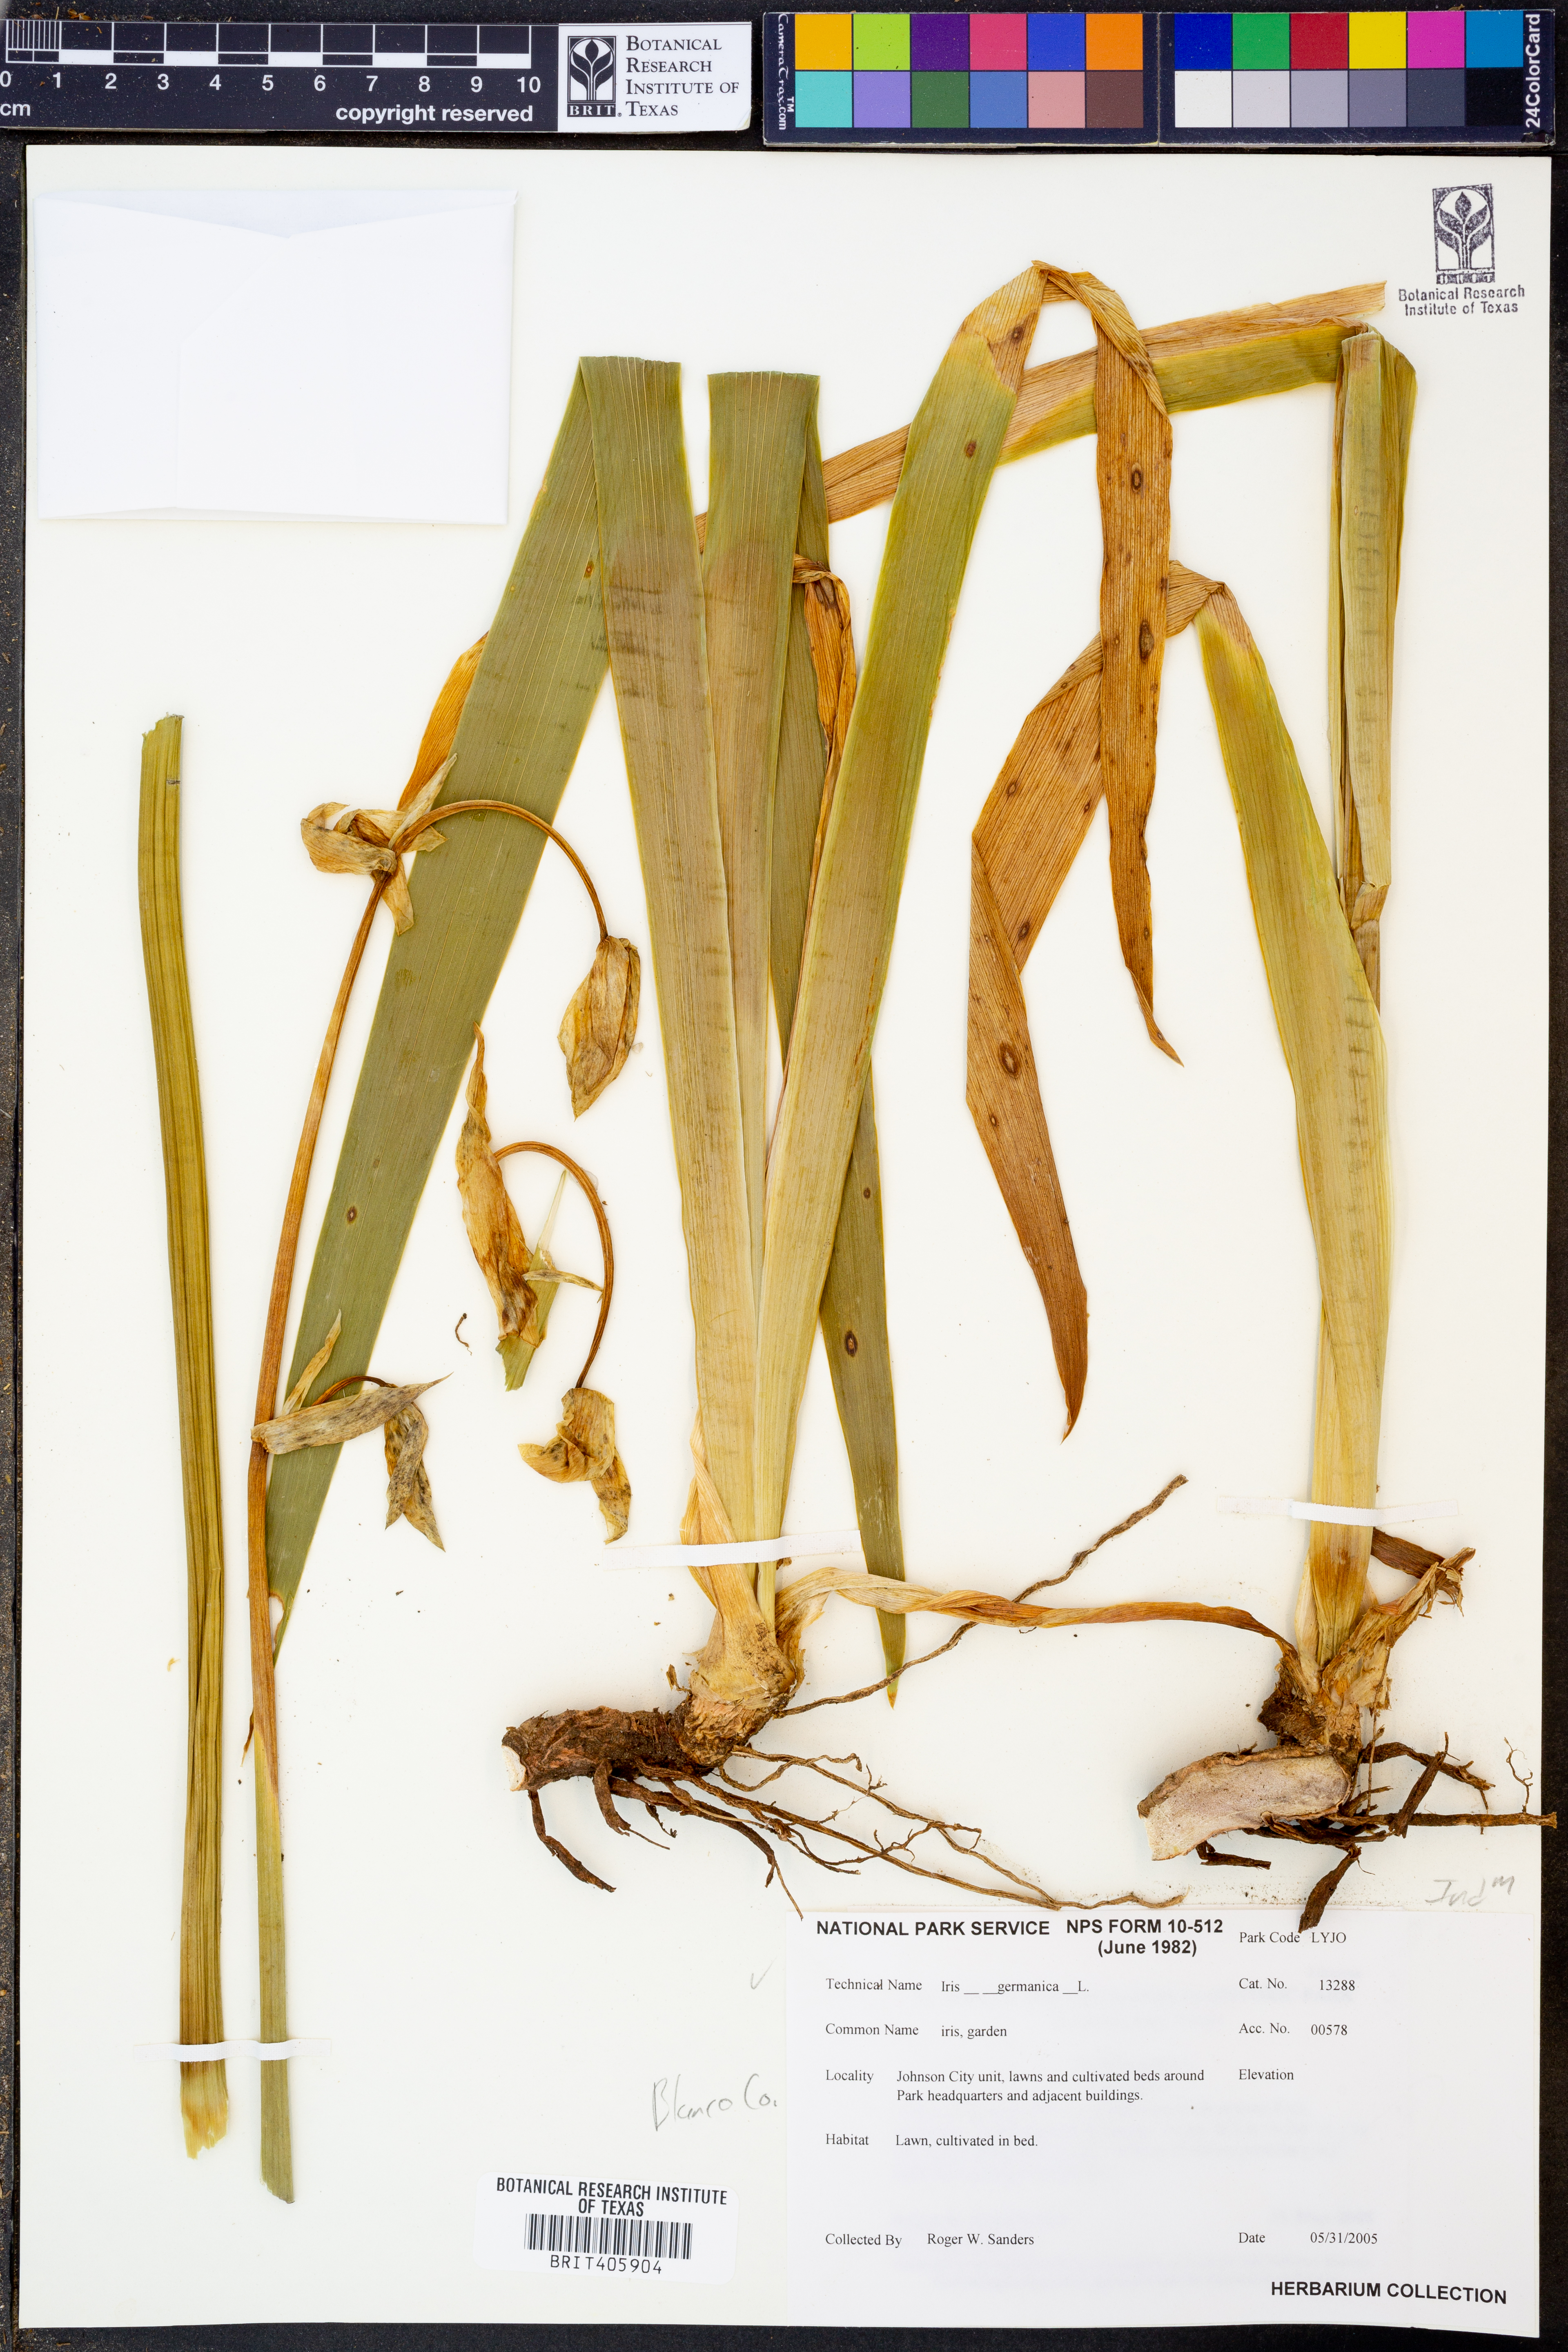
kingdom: Plantae
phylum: Tracheophyta
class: Liliopsida
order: Asparagales
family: Iridaceae
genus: Iris
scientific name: Iris germanica
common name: German iris
